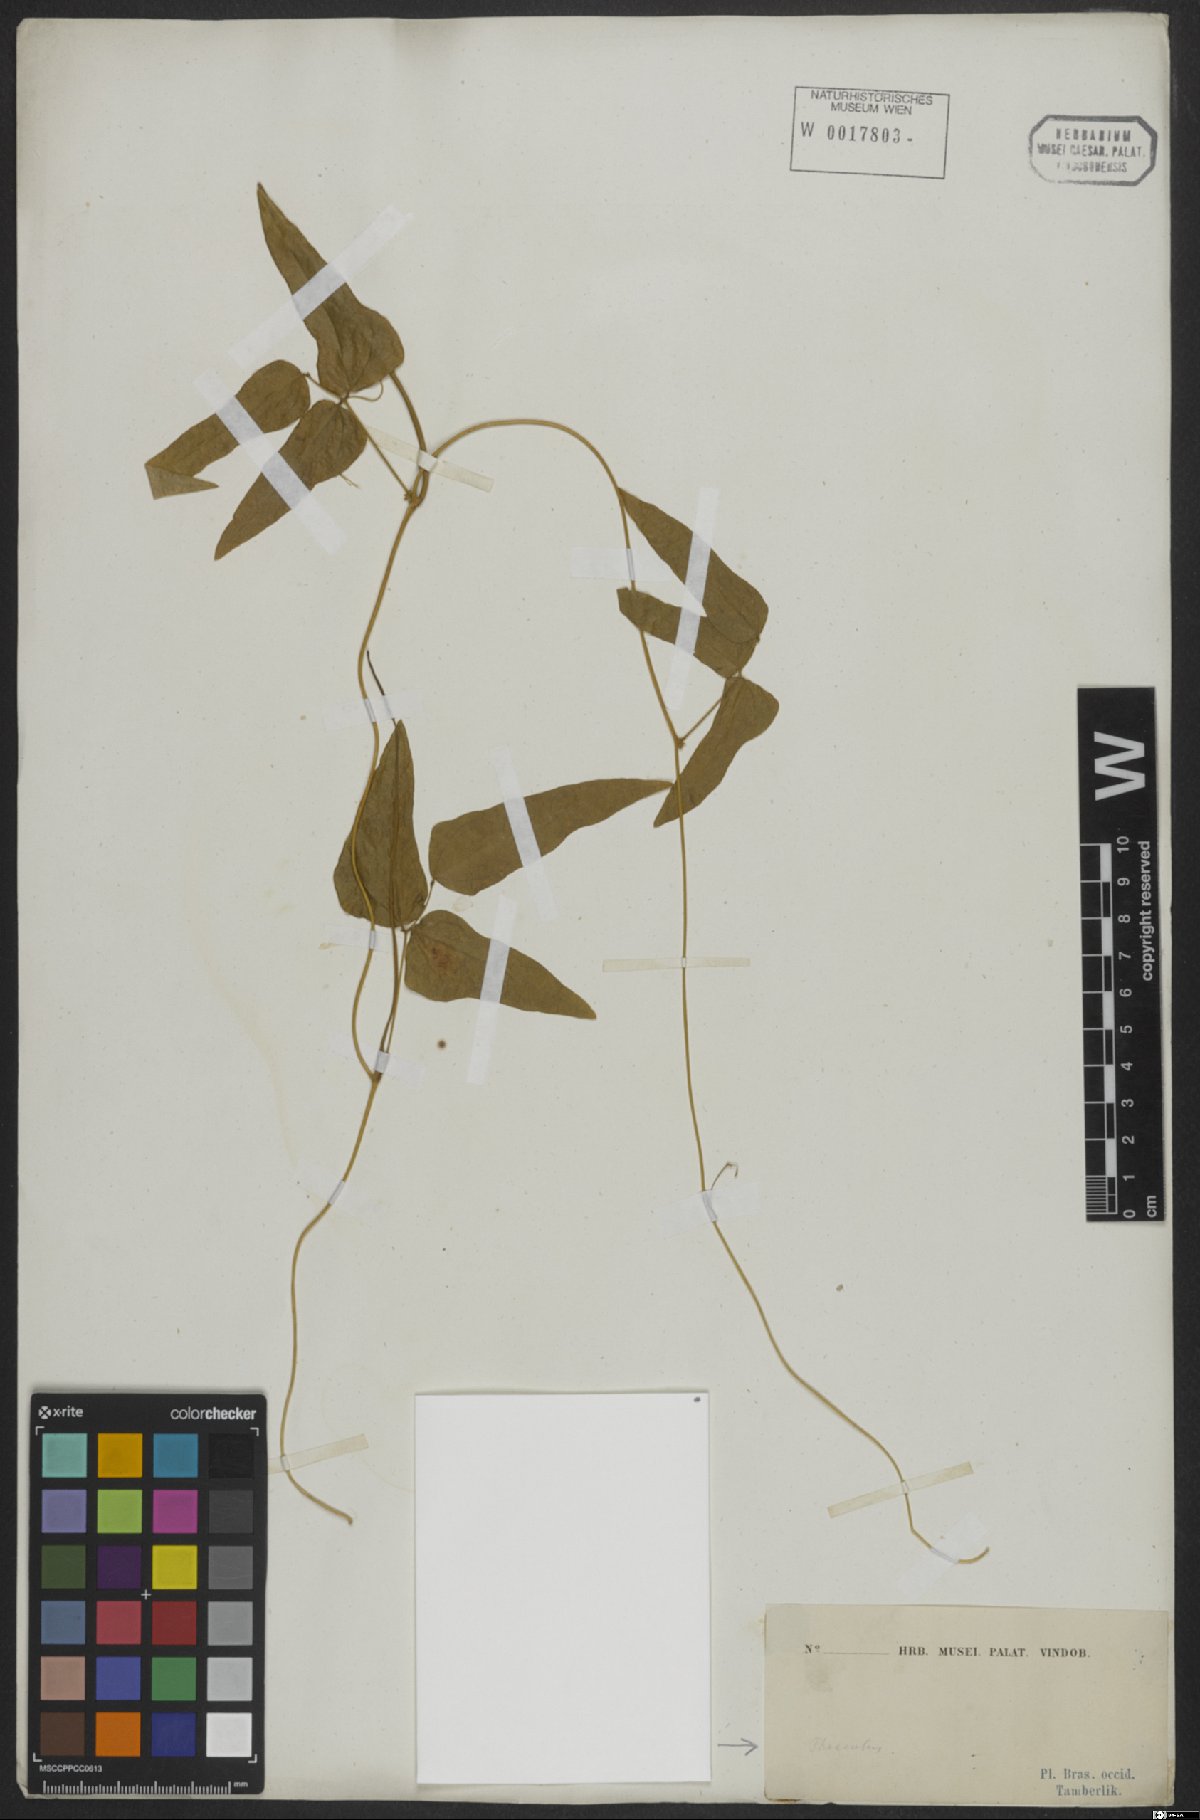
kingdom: Plantae
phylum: Tracheophyta
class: Magnoliopsida
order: Fabales
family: Fabaceae
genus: Phaseolus
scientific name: Phaseolus
